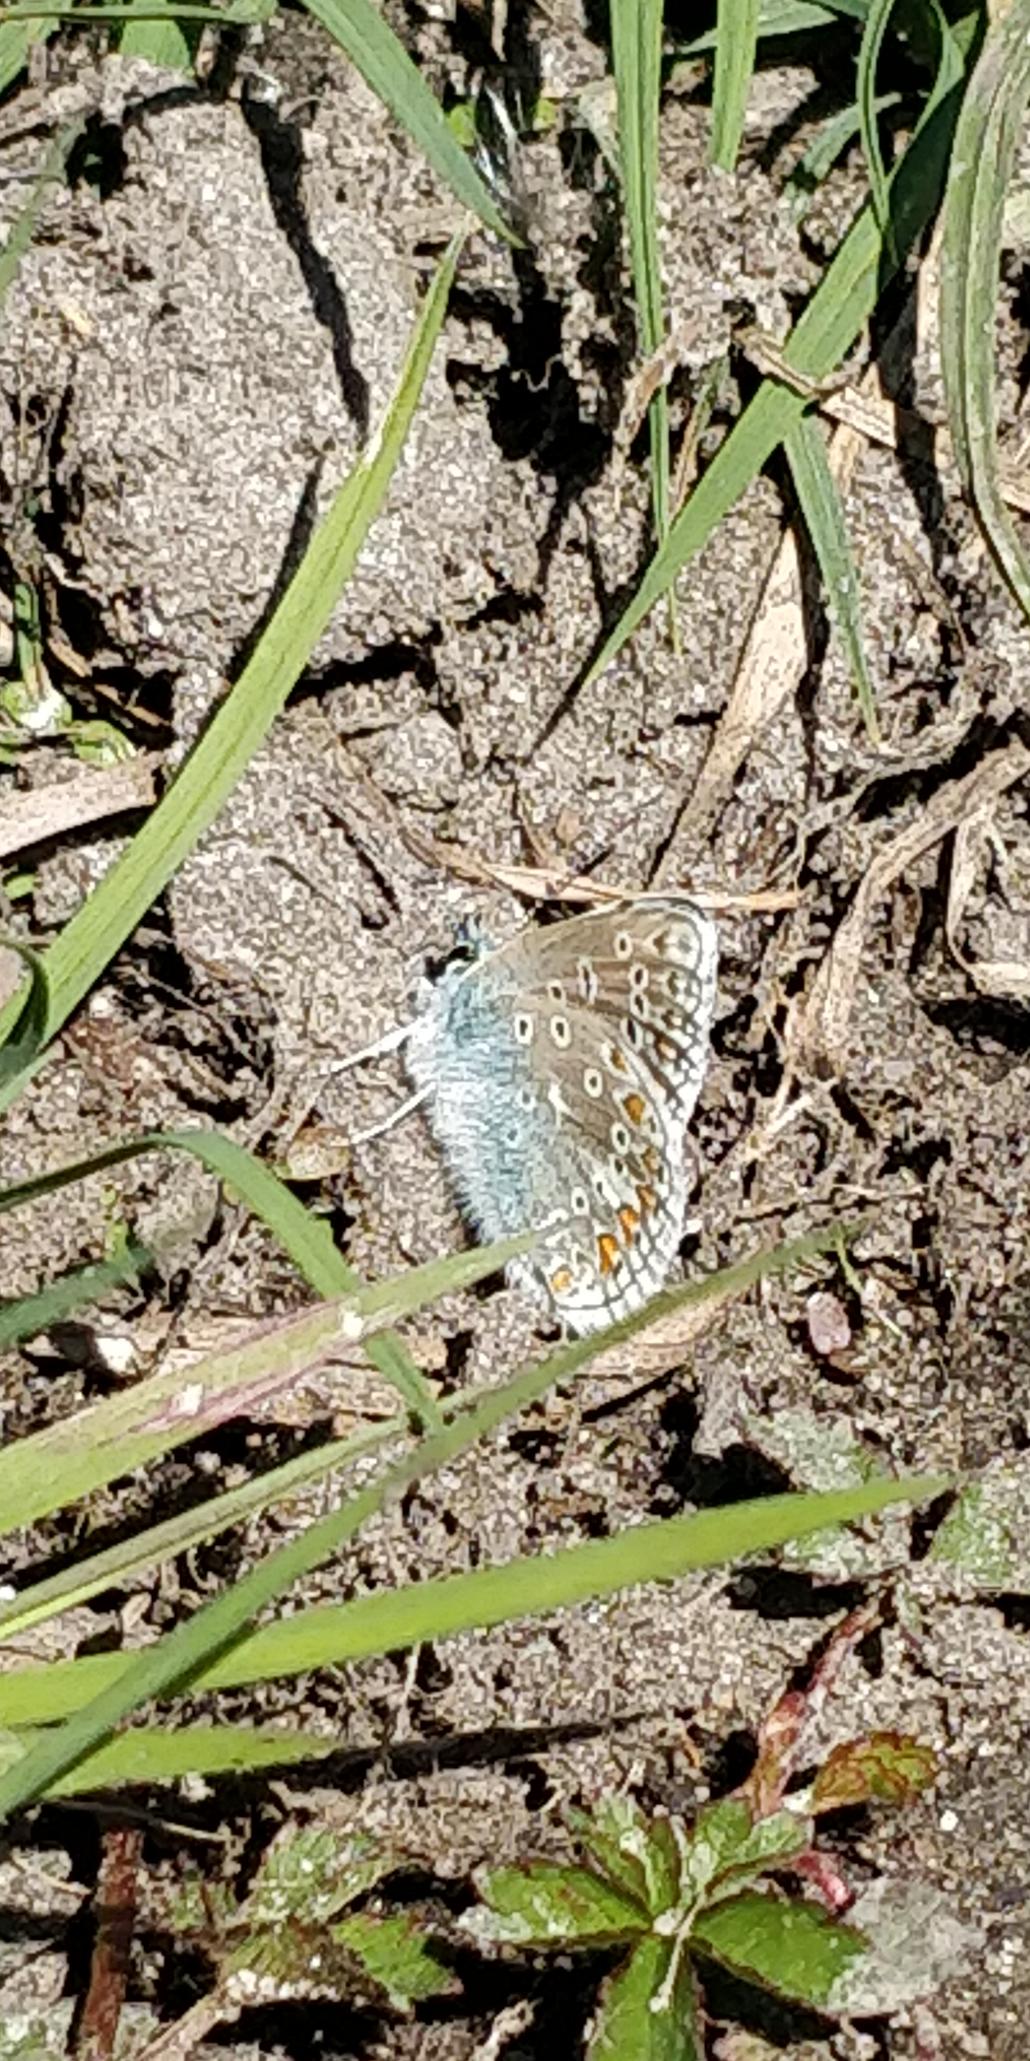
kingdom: Animalia
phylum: Arthropoda
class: Insecta
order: Lepidoptera
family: Lycaenidae
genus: Polyommatus
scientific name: Polyommatus icarus
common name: Almindelig blåfugl
